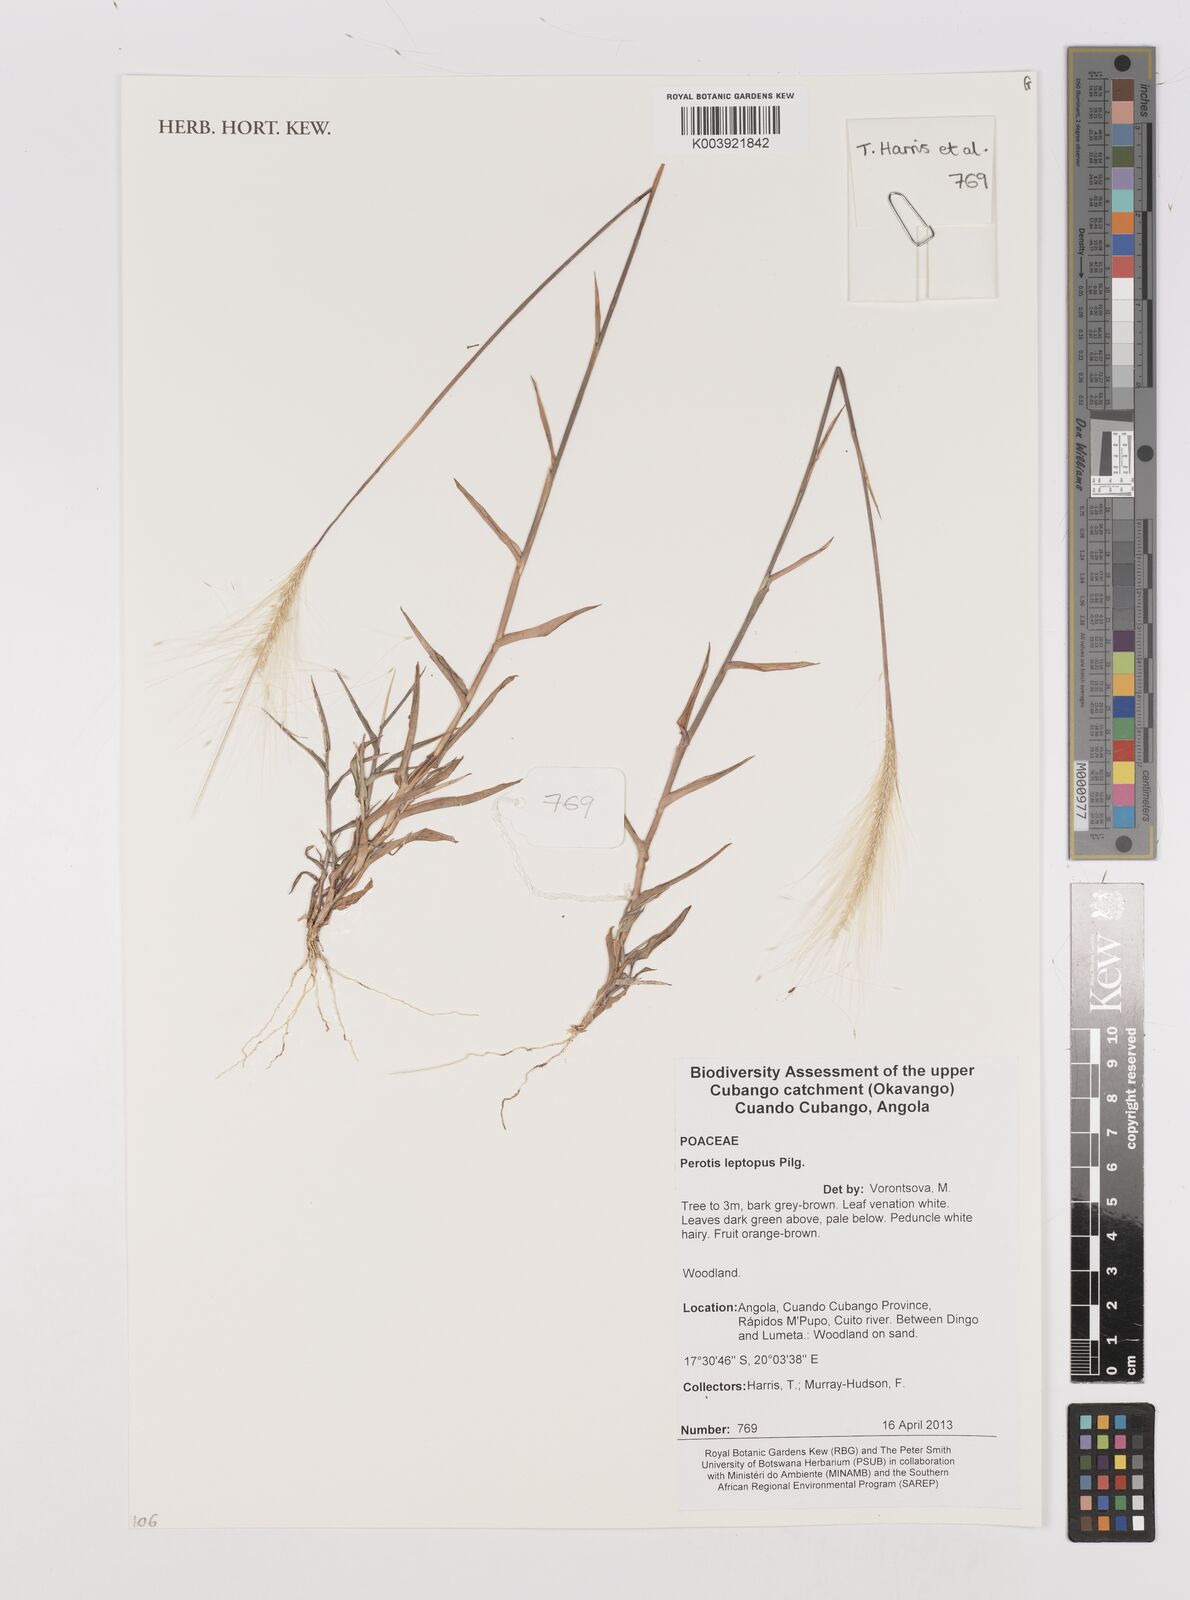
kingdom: Plantae
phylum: Tracheophyta
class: Liliopsida
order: Poales
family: Poaceae
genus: Perotis
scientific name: Perotis leptopus
